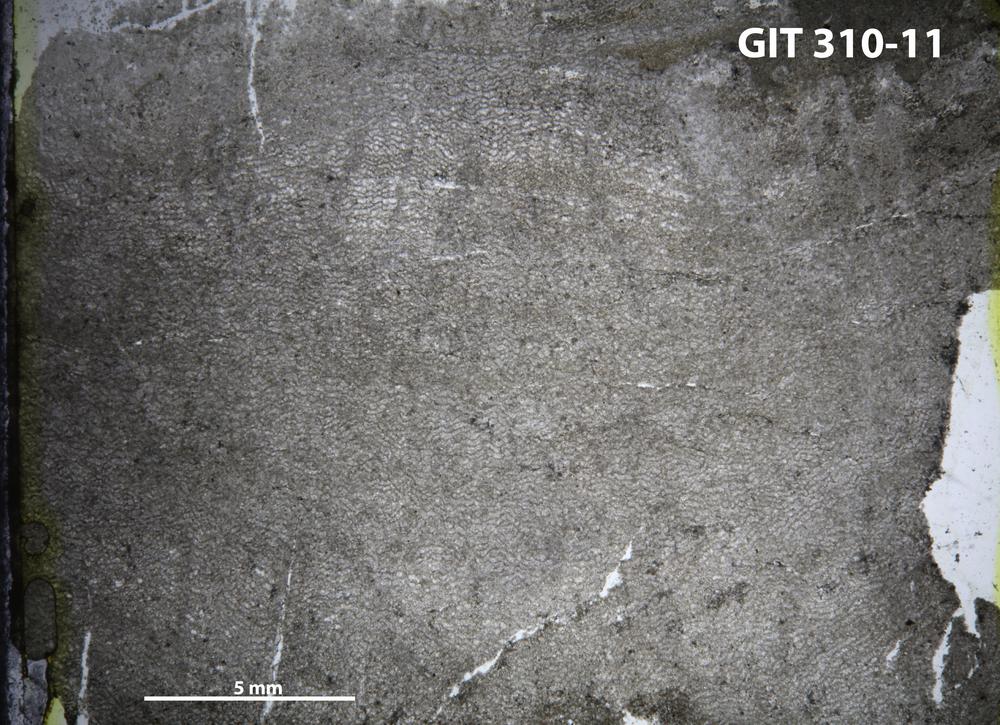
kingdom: Animalia
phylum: Porifera
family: Ecclimadictyidae
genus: Ecclimadictyon
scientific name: Ecclimadictyon
